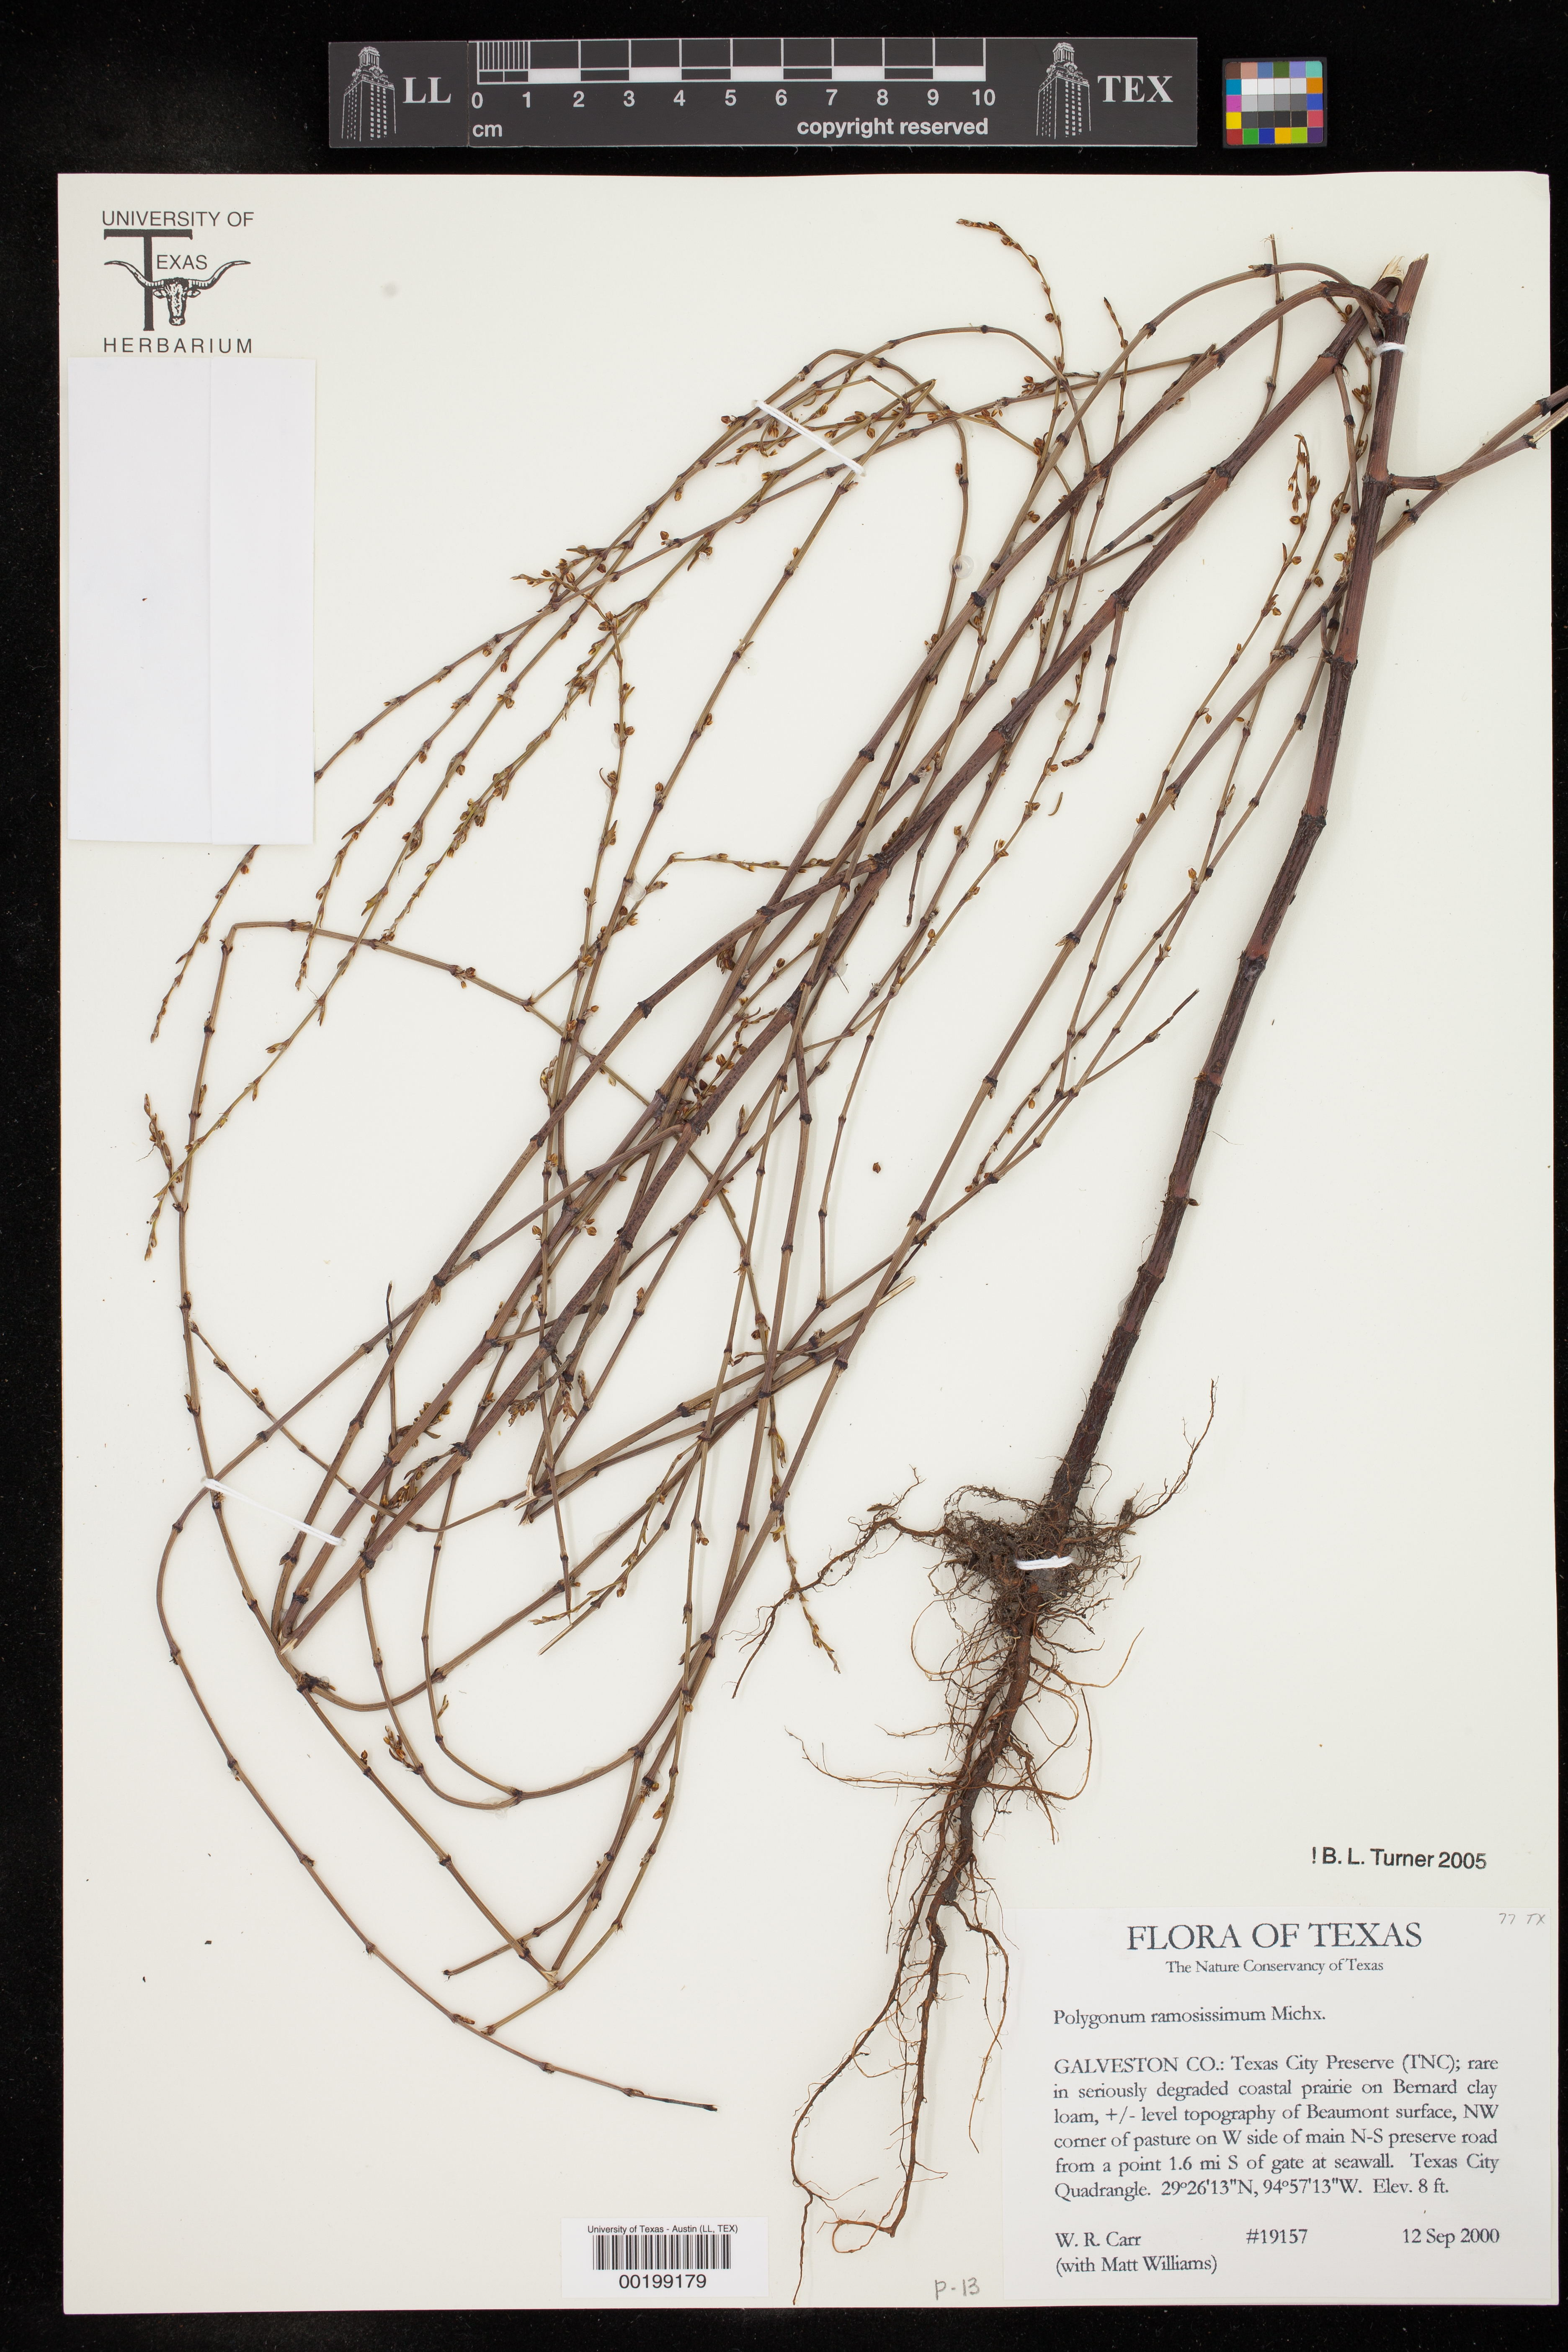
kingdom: Plantae
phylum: Tracheophyta
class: Magnoliopsida
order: Caryophyllales
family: Polygonaceae
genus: Polygonum
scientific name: Polygonum ramosissimum
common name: Bushy knotweed
